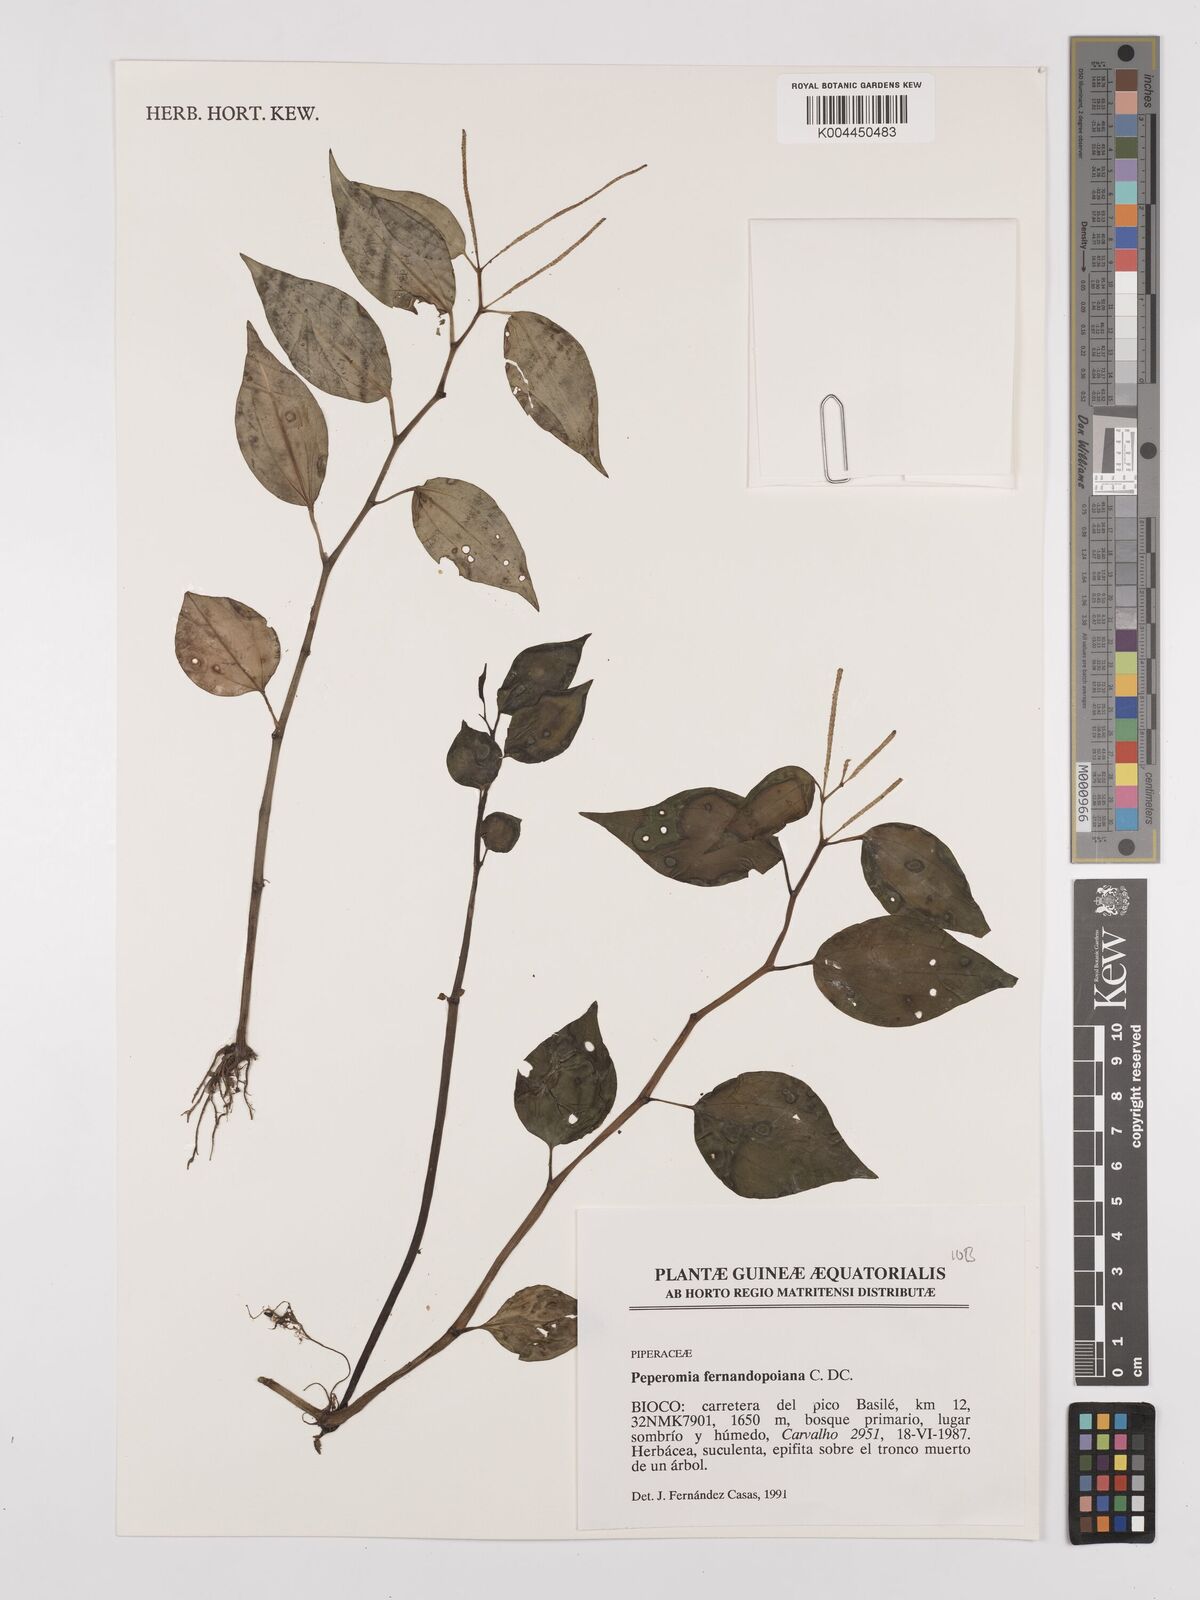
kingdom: Plantae
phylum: Tracheophyta
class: Magnoliopsida
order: Piperales
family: Piperaceae
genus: Peperomia
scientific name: Peperomia fernandopoiana
